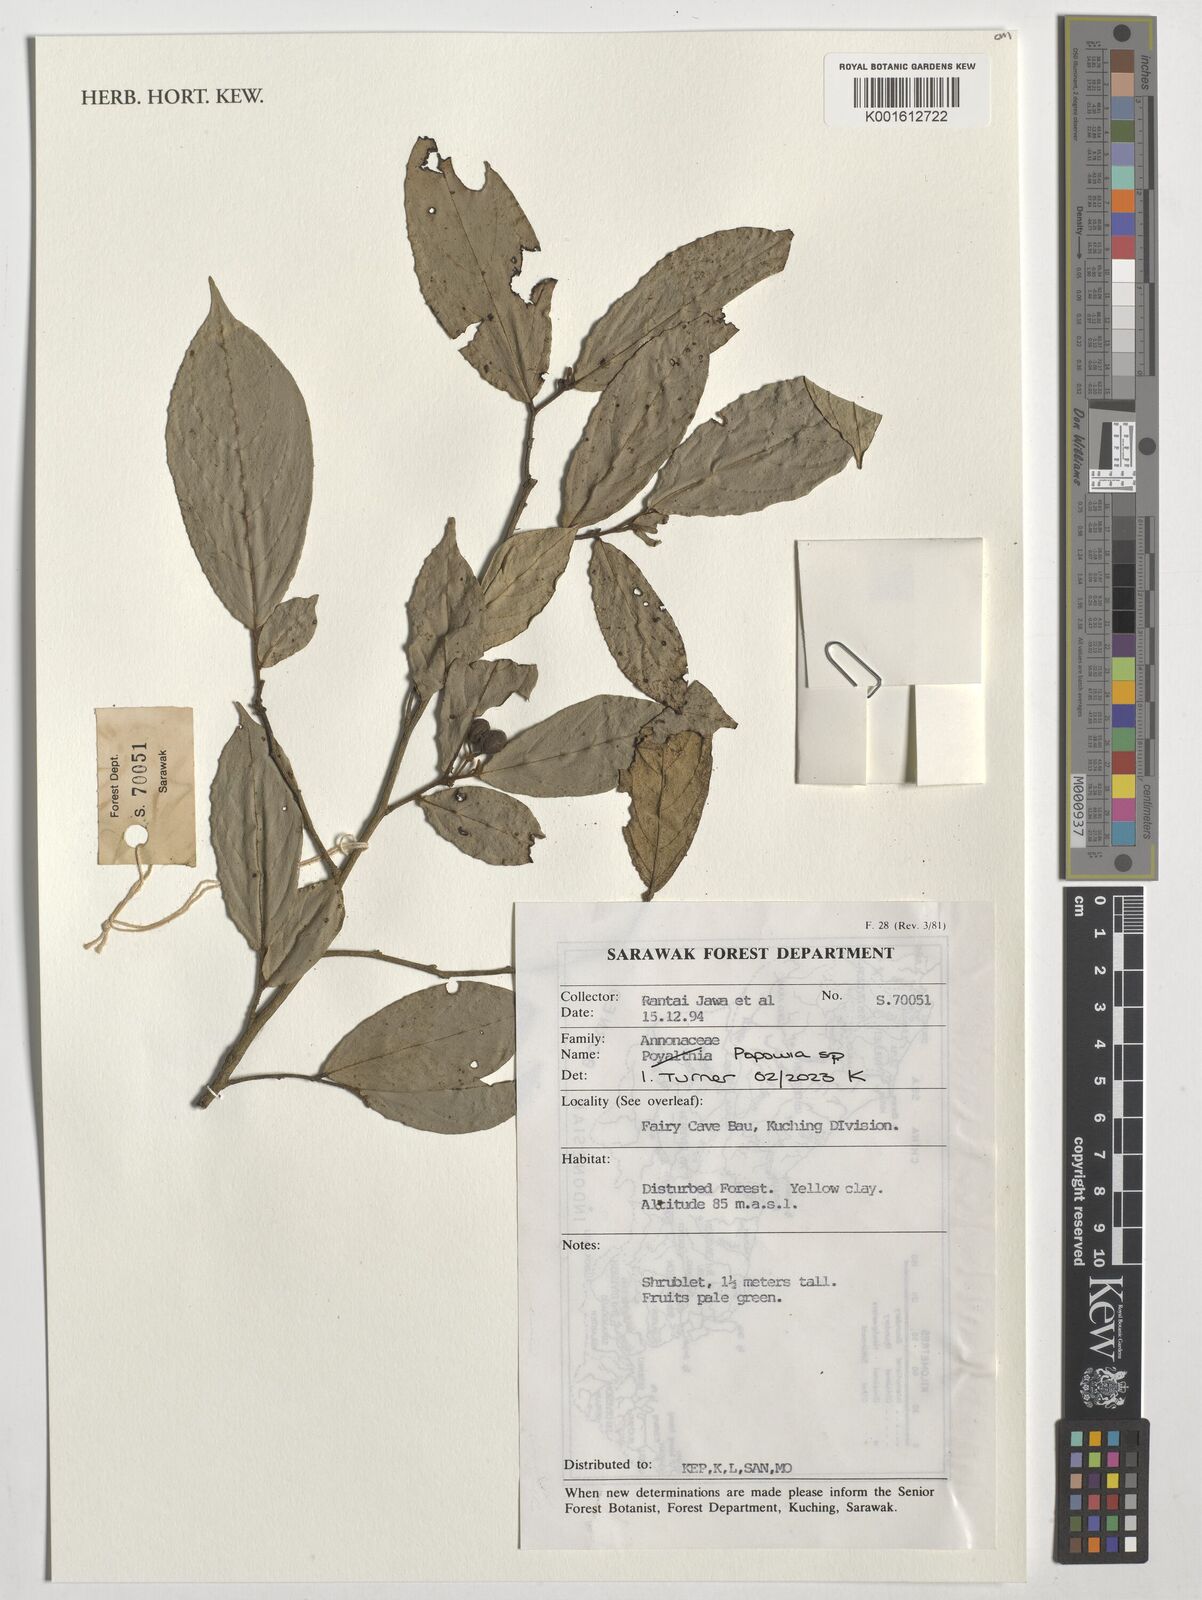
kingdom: Plantae
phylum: Tracheophyta
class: Magnoliopsida
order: Magnoliales
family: Annonaceae
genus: Popowia
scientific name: Popowia
